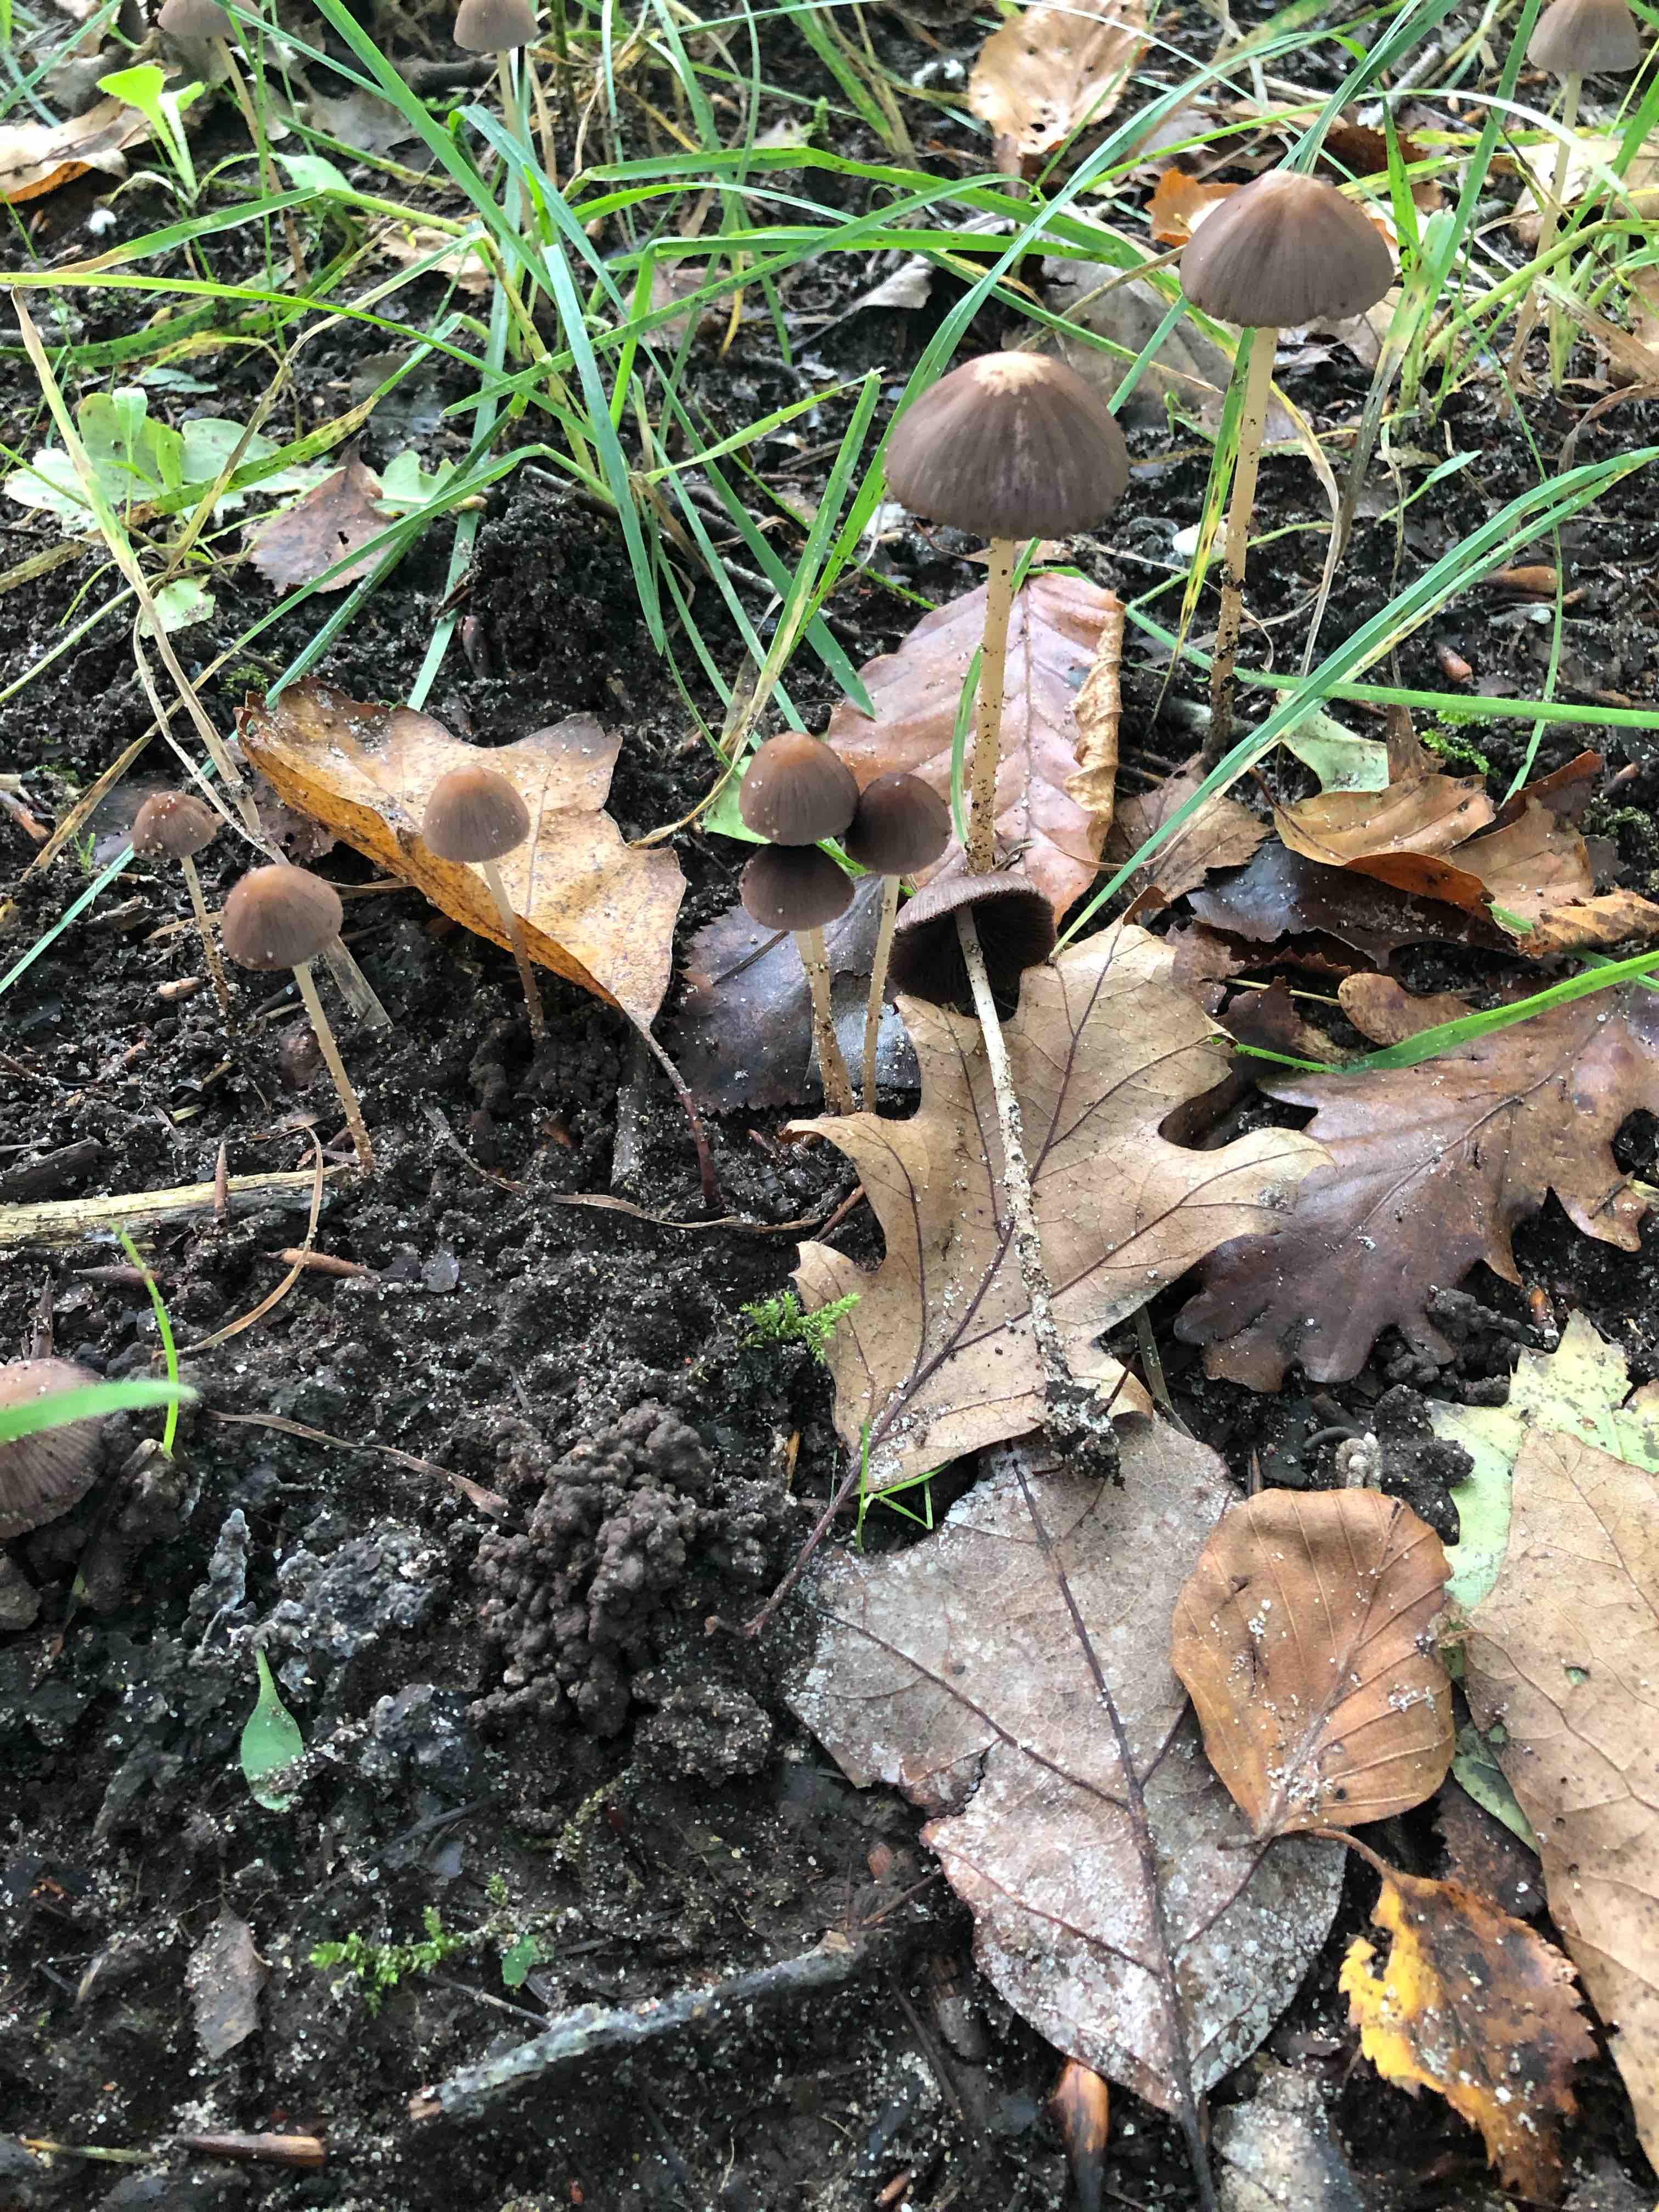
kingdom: Fungi
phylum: Basidiomycota
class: Agaricomycetes
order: Agaricales
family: Psathyrellaceae
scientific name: Psathyrellaceae
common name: mørkhatfamilien
